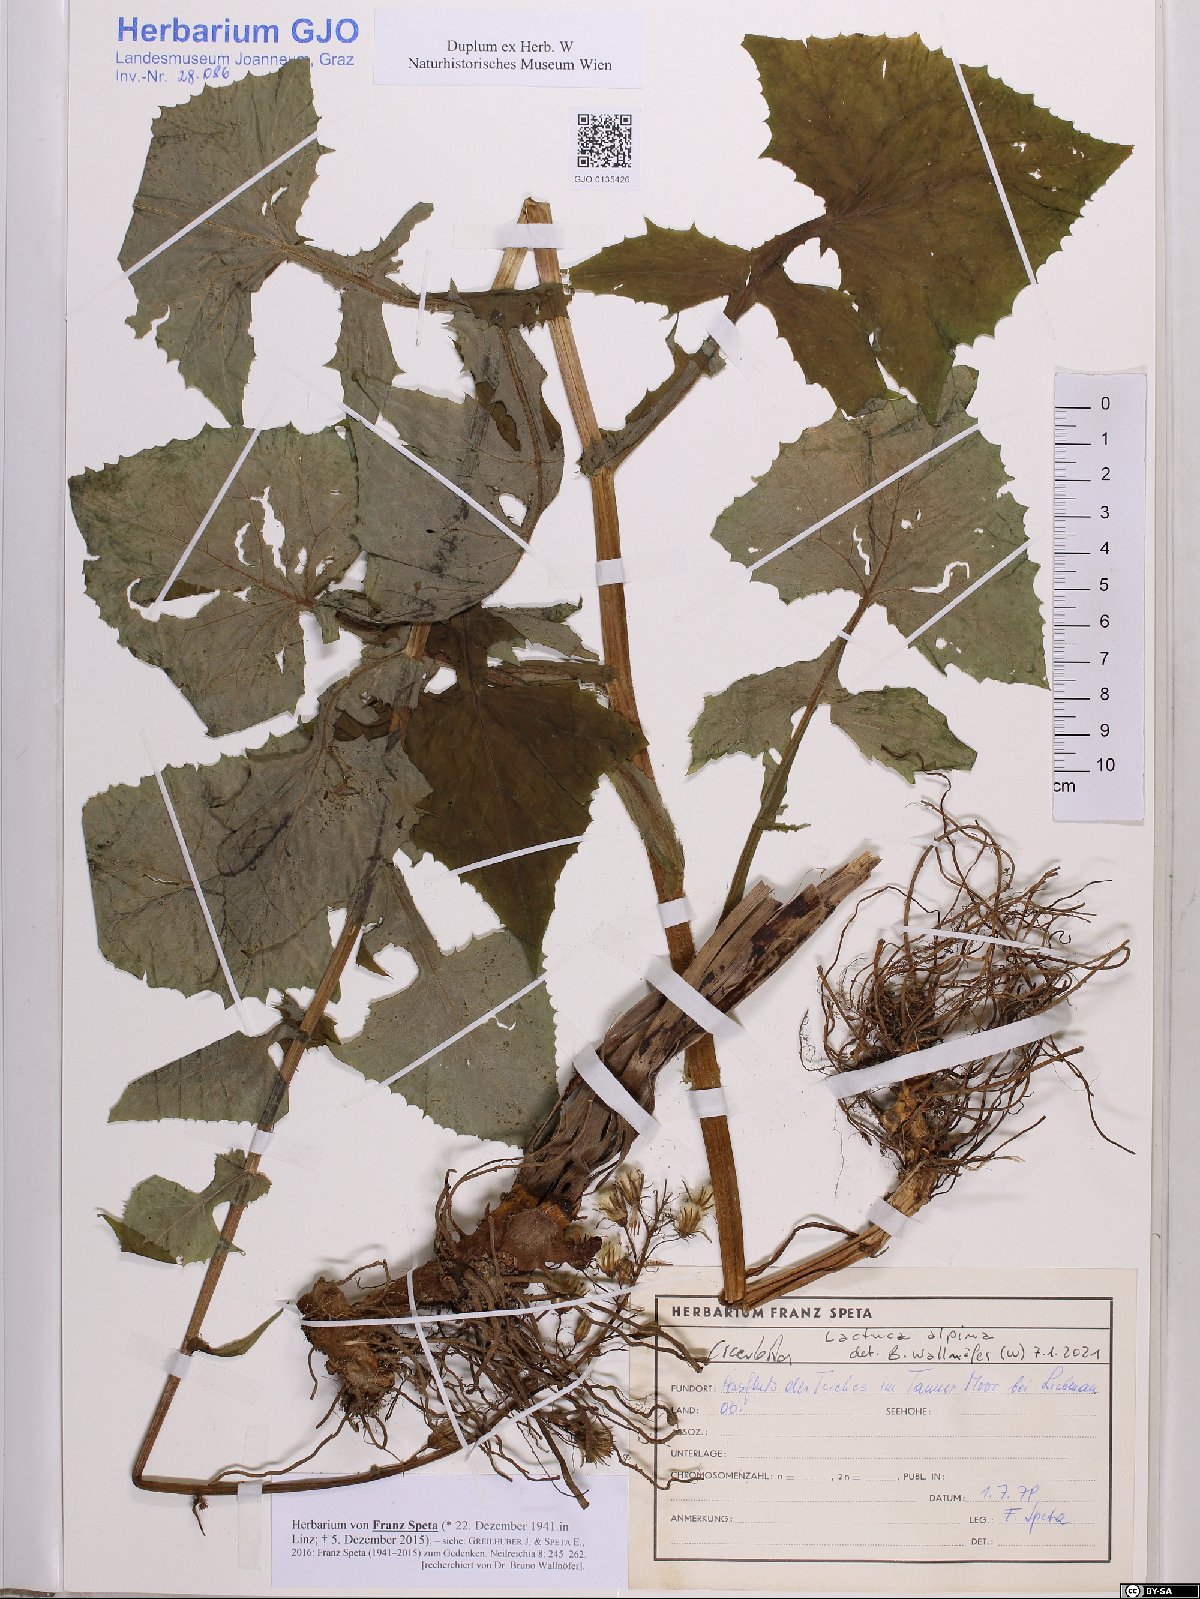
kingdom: Plantae
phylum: Tracheophyta
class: Magnoliopsida
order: Asterales
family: Asteraceae
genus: Cicerbita
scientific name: Cicerbita alpina
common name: Alpine blue-sow-thistle
